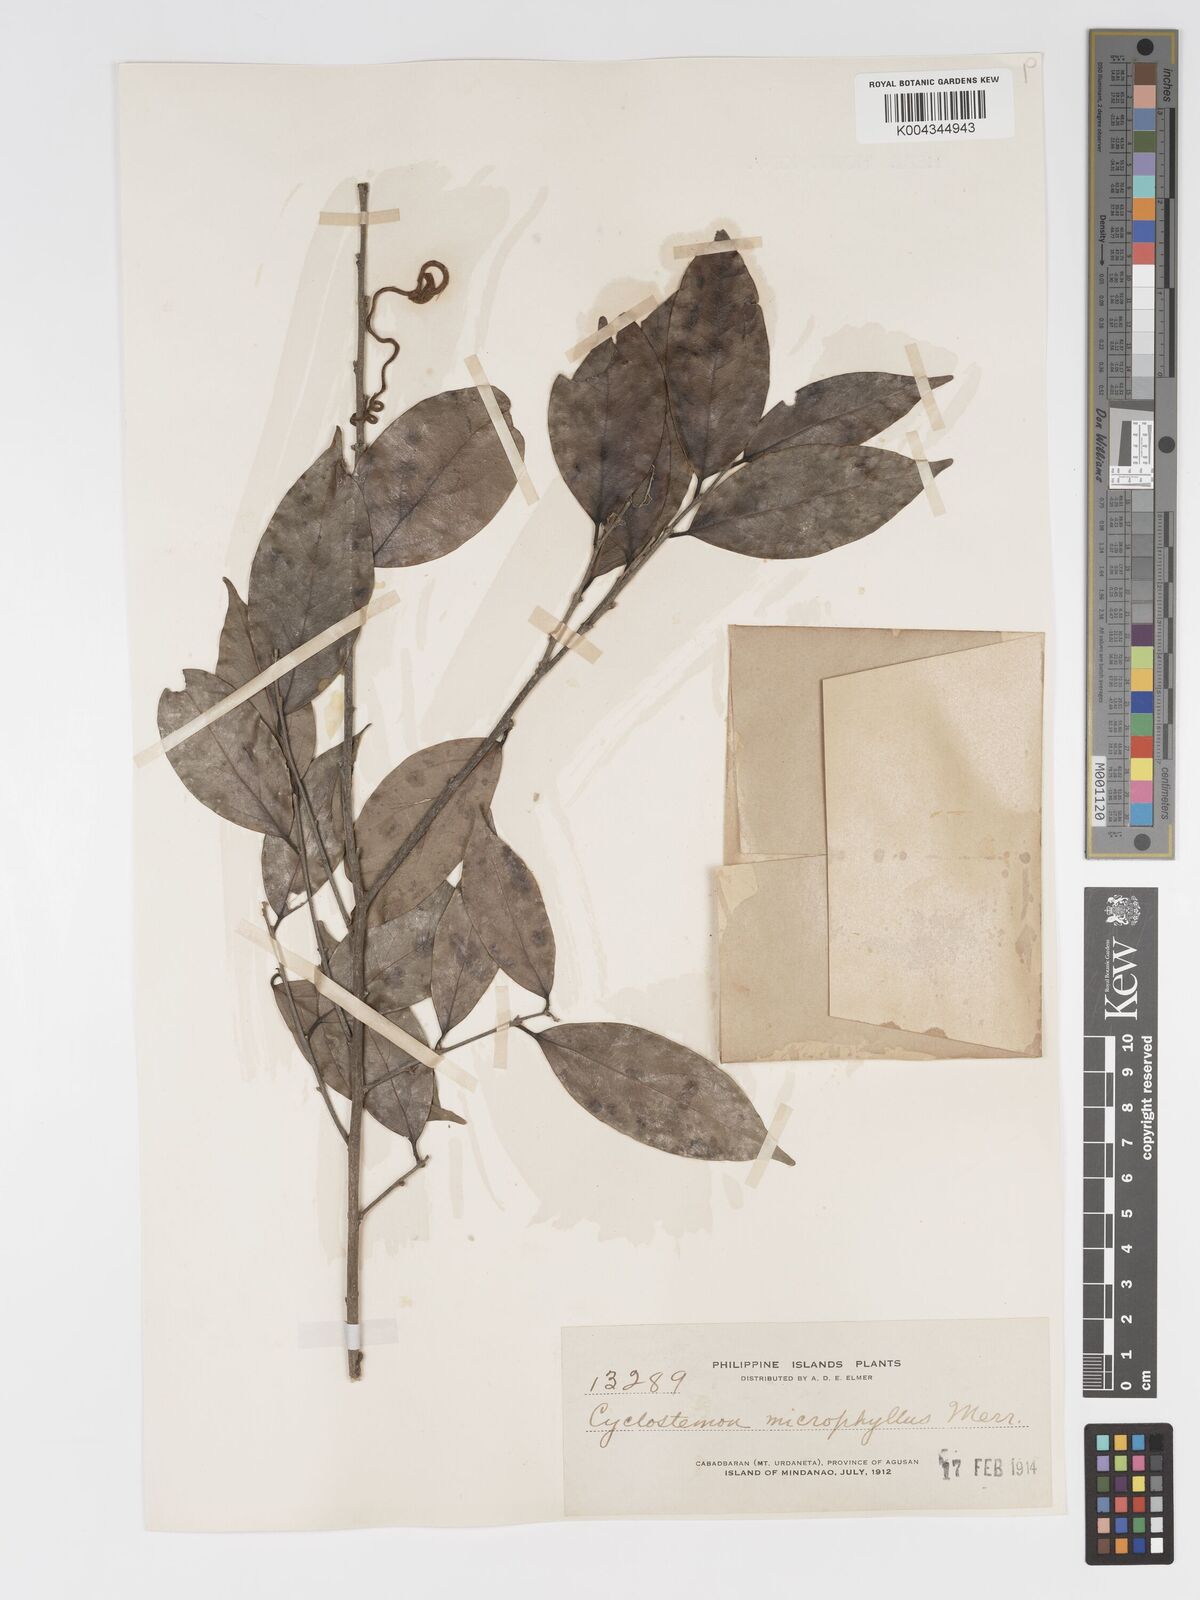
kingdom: Plantae
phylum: Tracheophyta
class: Magnoliopsida
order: Malpighiales
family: Putranjivaceae
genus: Drypetes
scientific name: Drypetes microphylla
